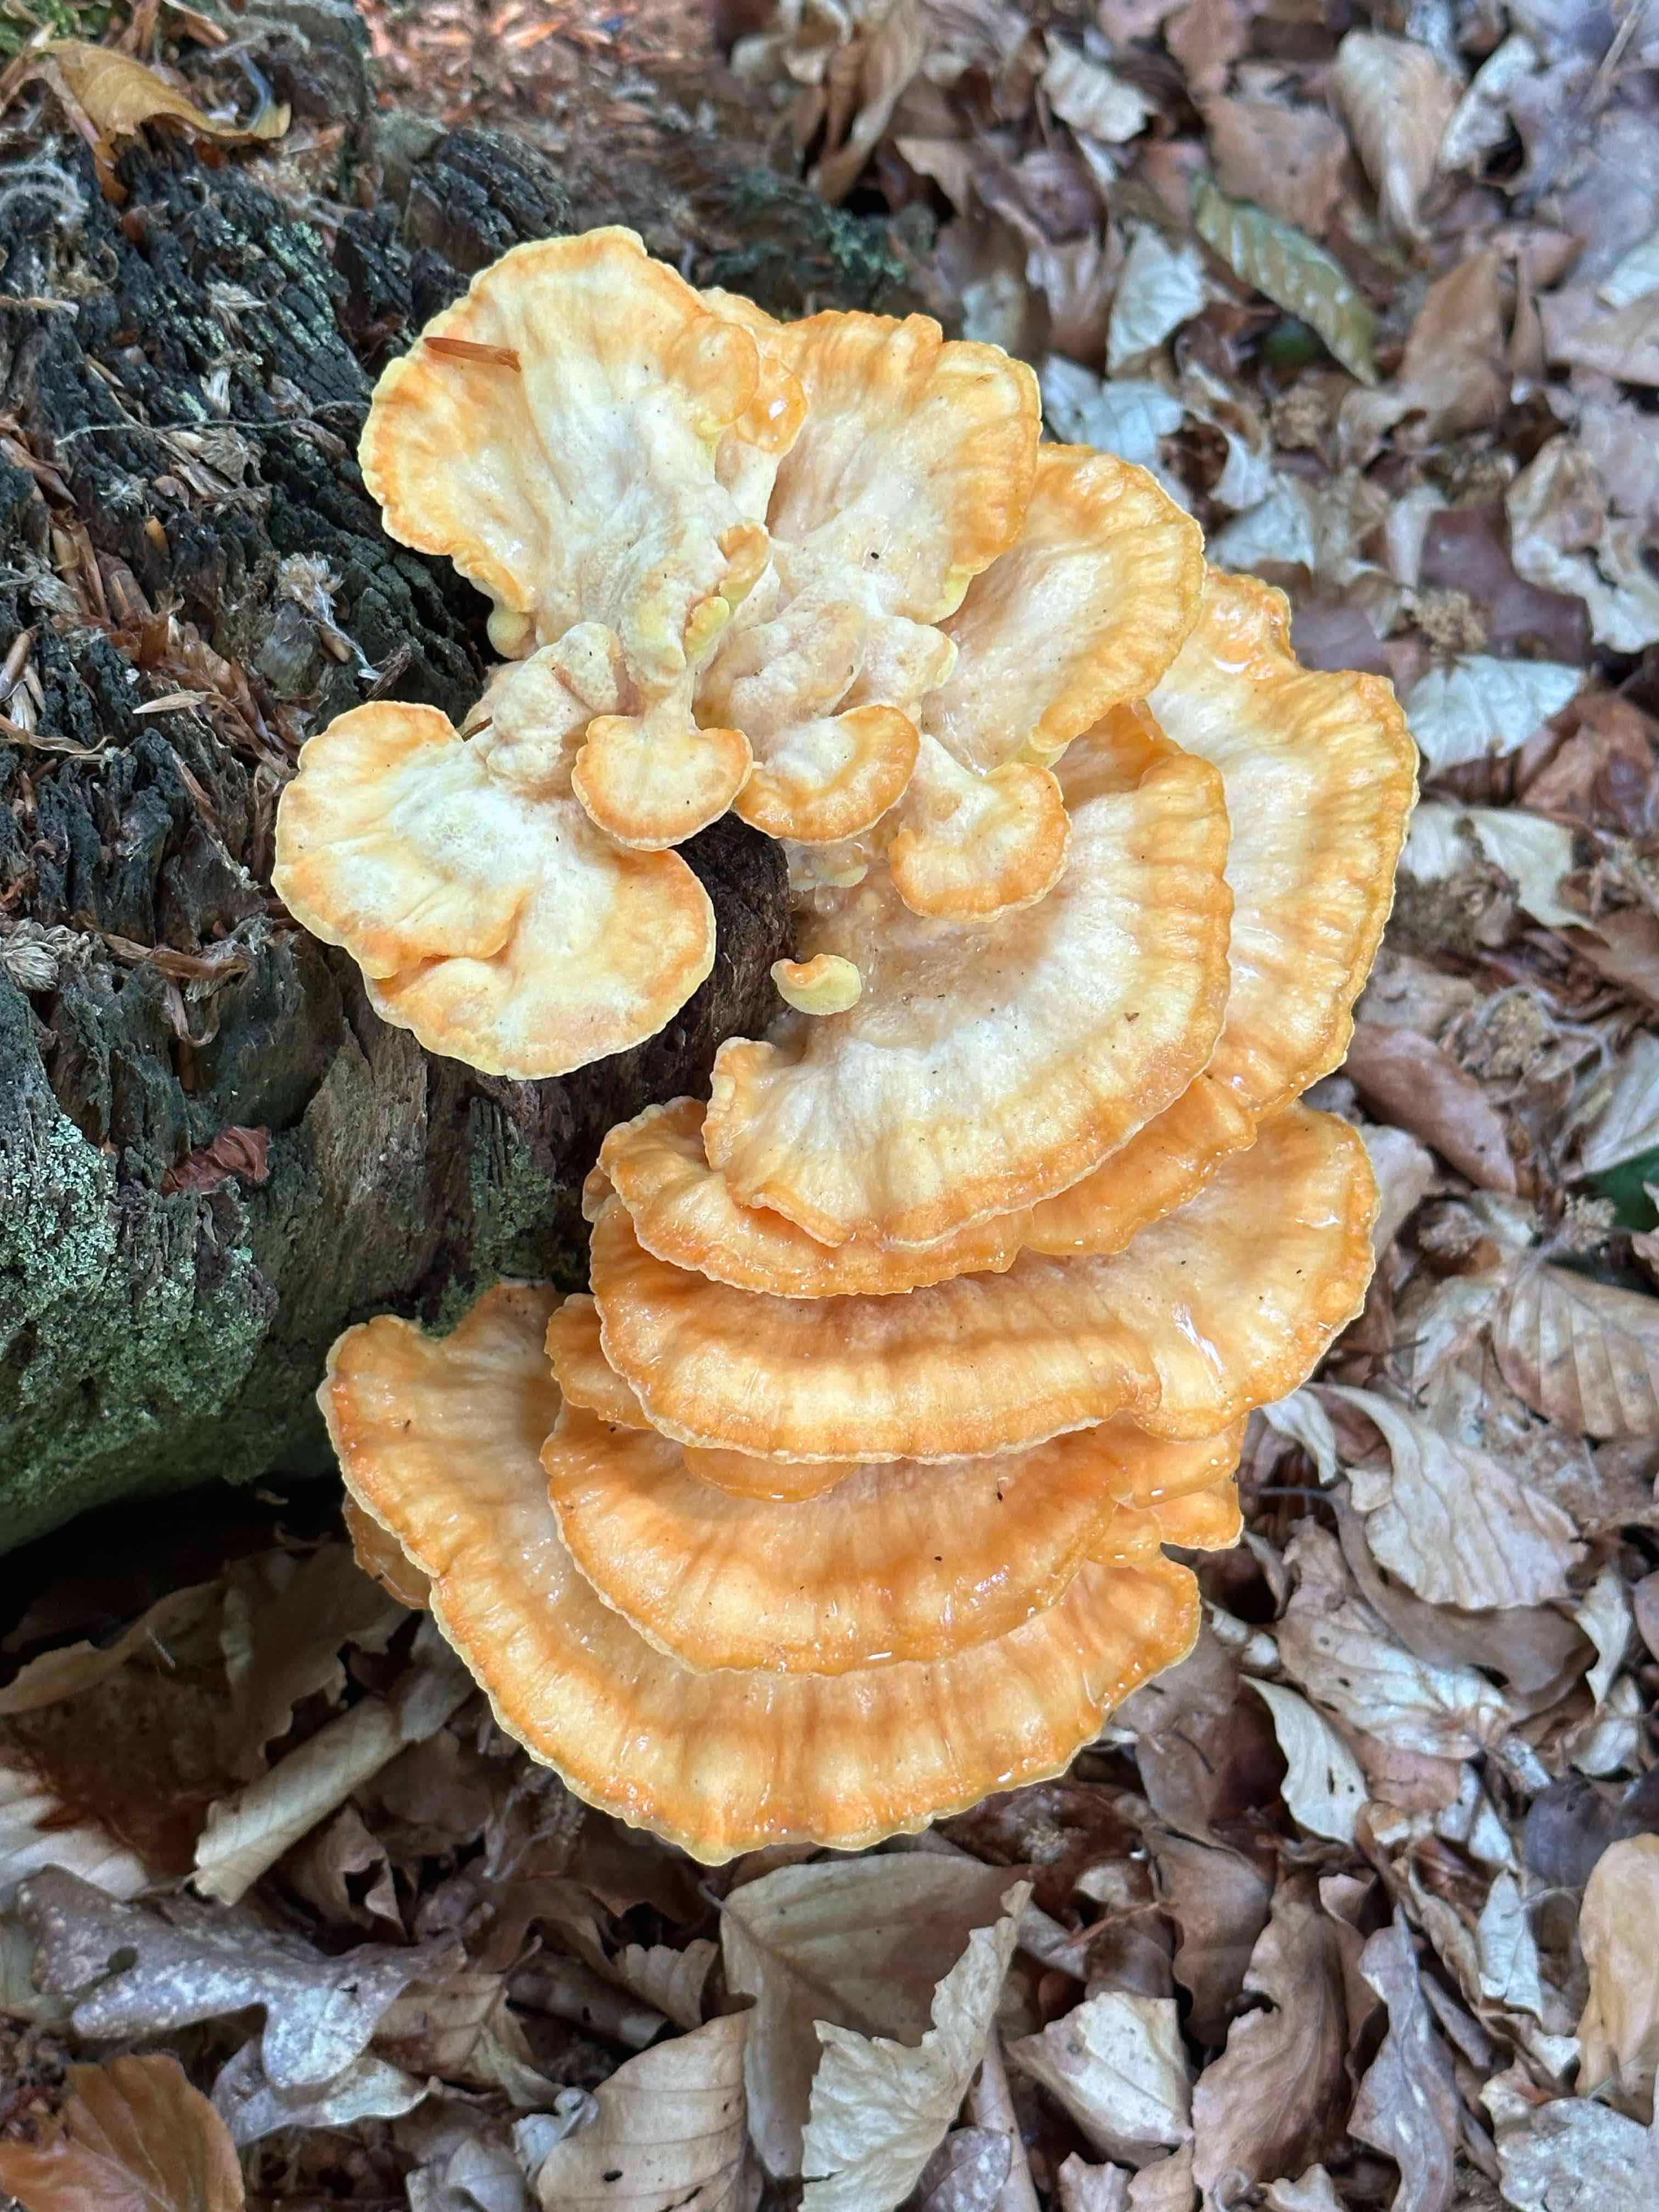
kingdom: Fungi
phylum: Basidiomycota
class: Agaricomycetes
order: Polyporales
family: Laetiporaceae
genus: Laetiporus
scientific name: Laetiporus sulphureus
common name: svovlporesvamp
